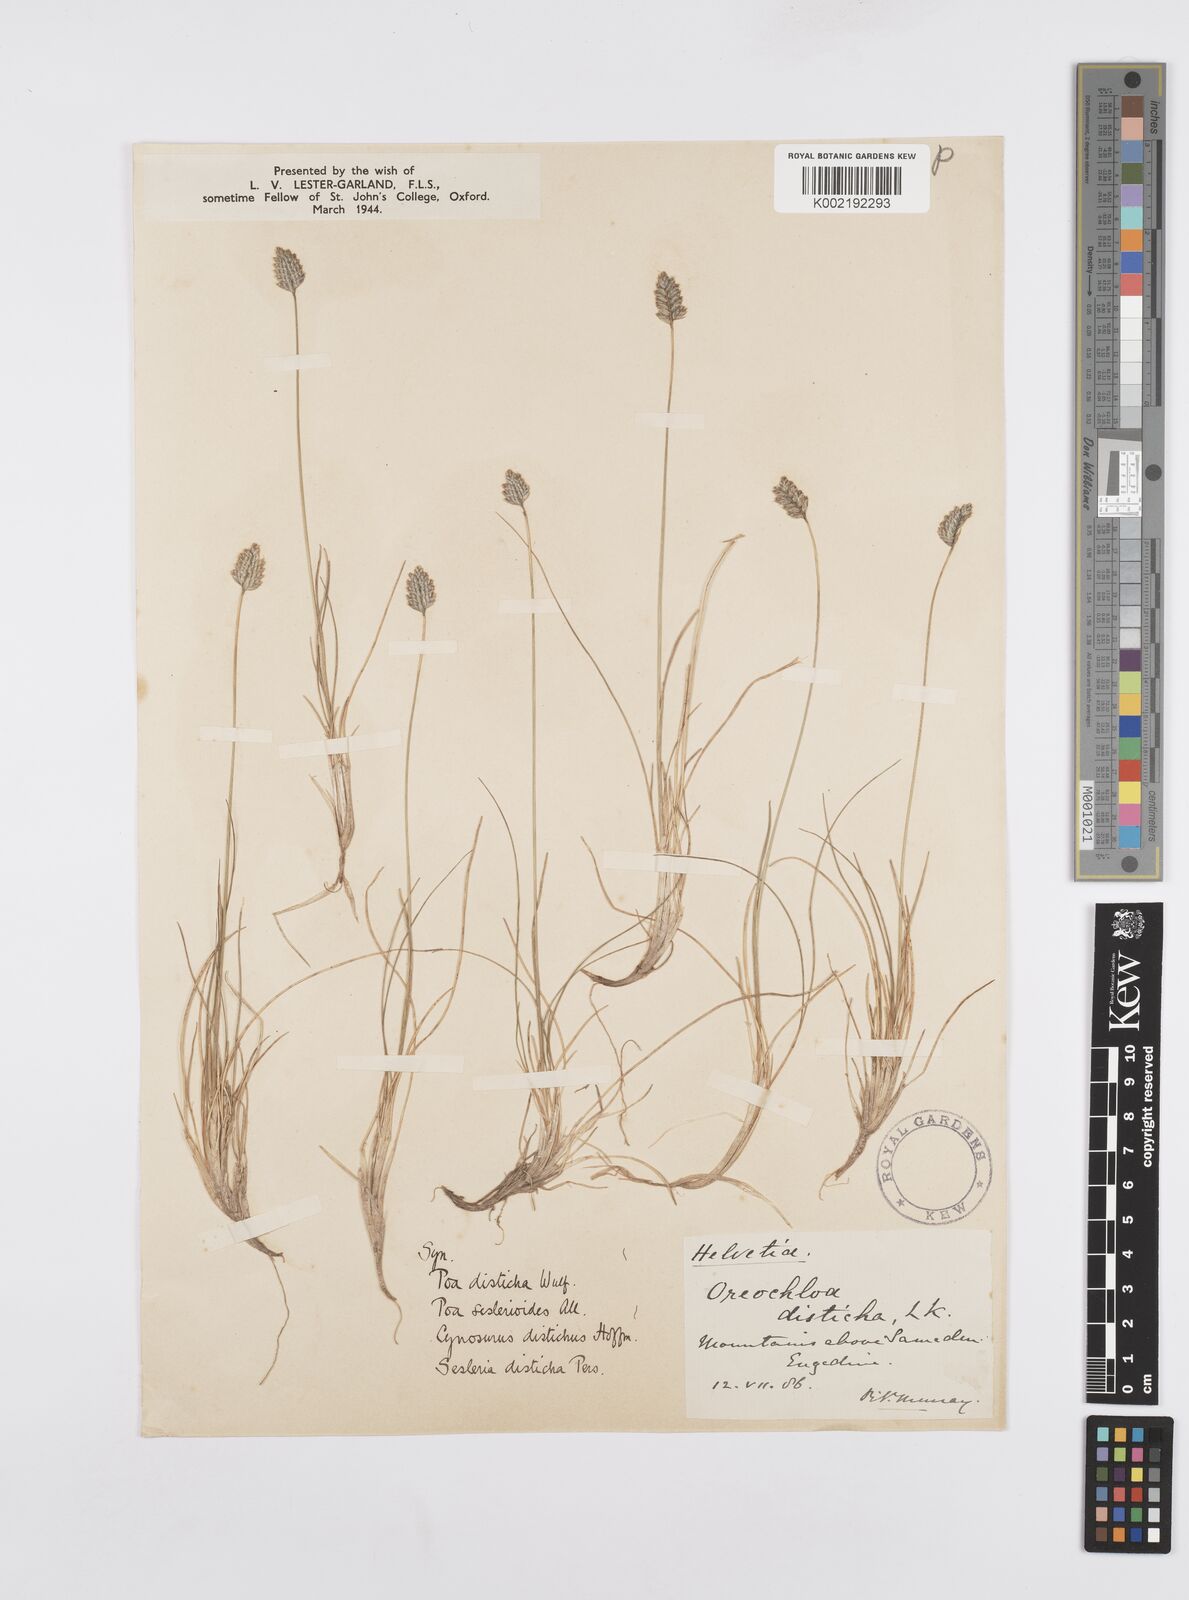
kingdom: Plantae
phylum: Tracheophyta
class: Liliopsida
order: Poales
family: Poaceae
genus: Oreochloa
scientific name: Oreochloa disticha
